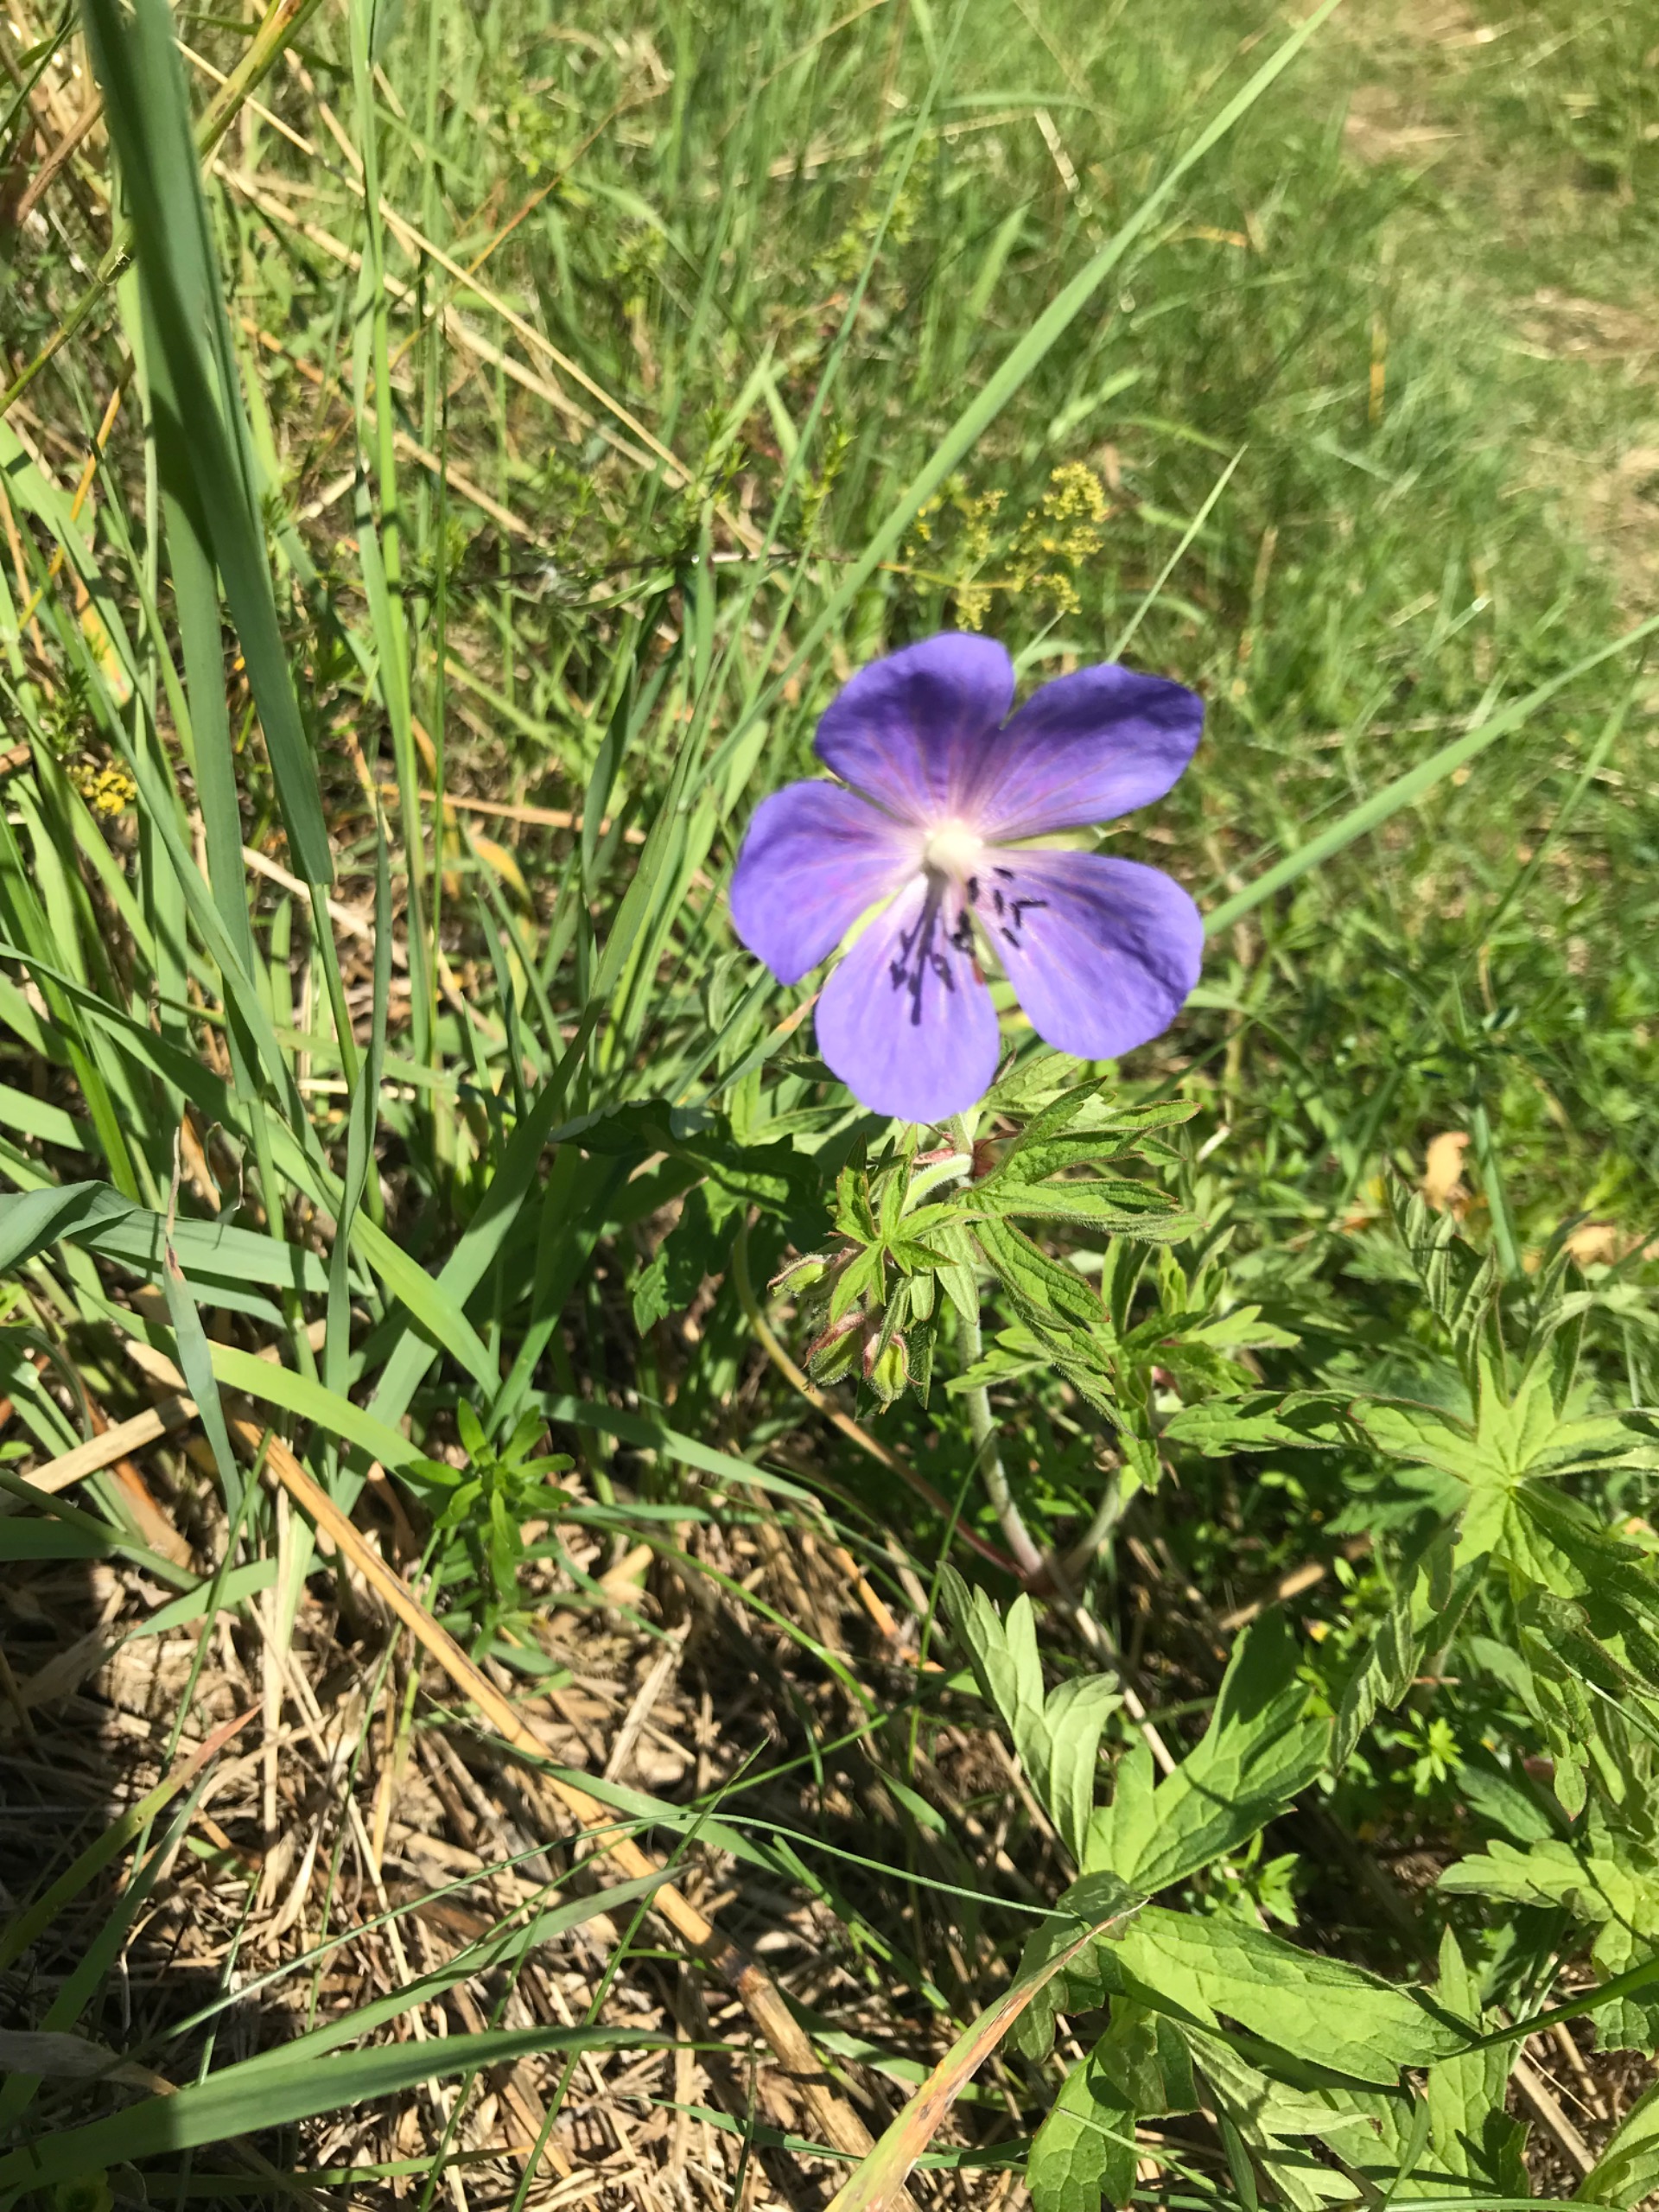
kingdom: Plantae
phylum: Tracheophyta
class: Magnoliopsida
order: Geraniales
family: Geraniaceae
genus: Geranium
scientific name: Geranium pratense
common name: Eng-storkenæb
